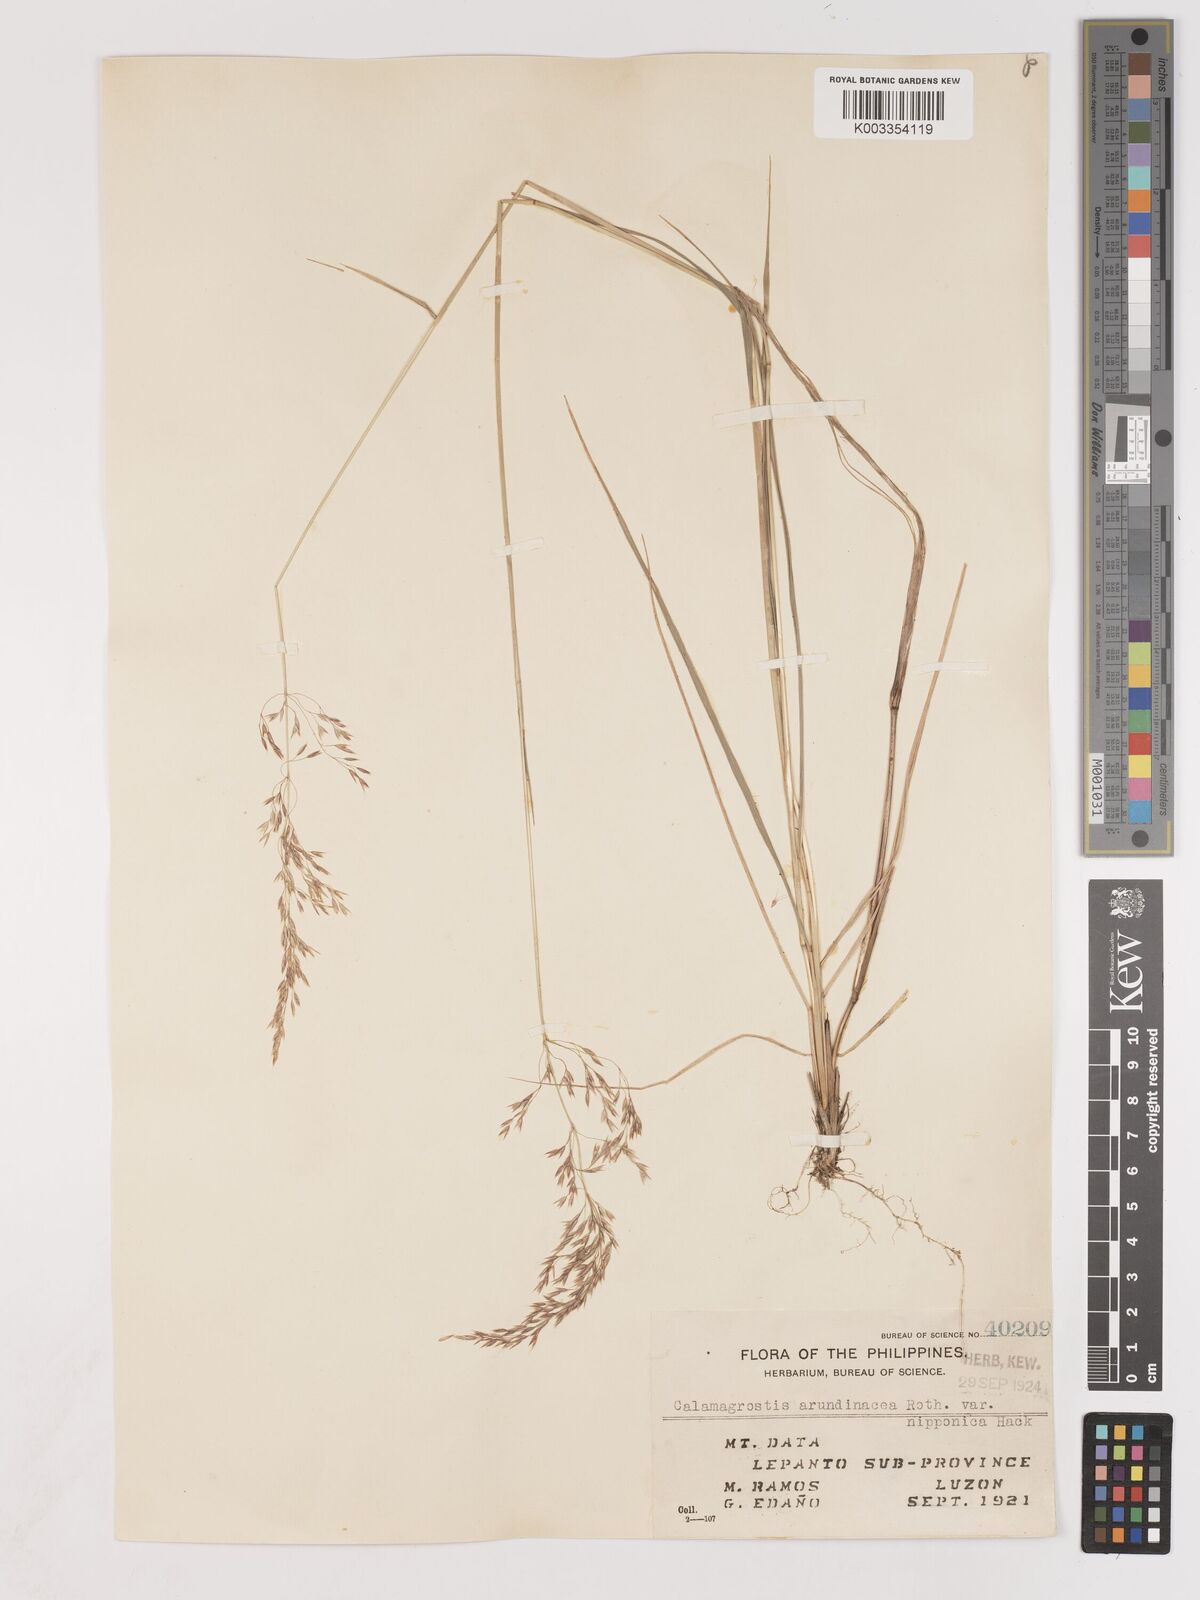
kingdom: Plantae
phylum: Tracheophyta
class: Liliopsida
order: Poales
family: Poaceae
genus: Calamagrostis
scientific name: Calamagrostis
